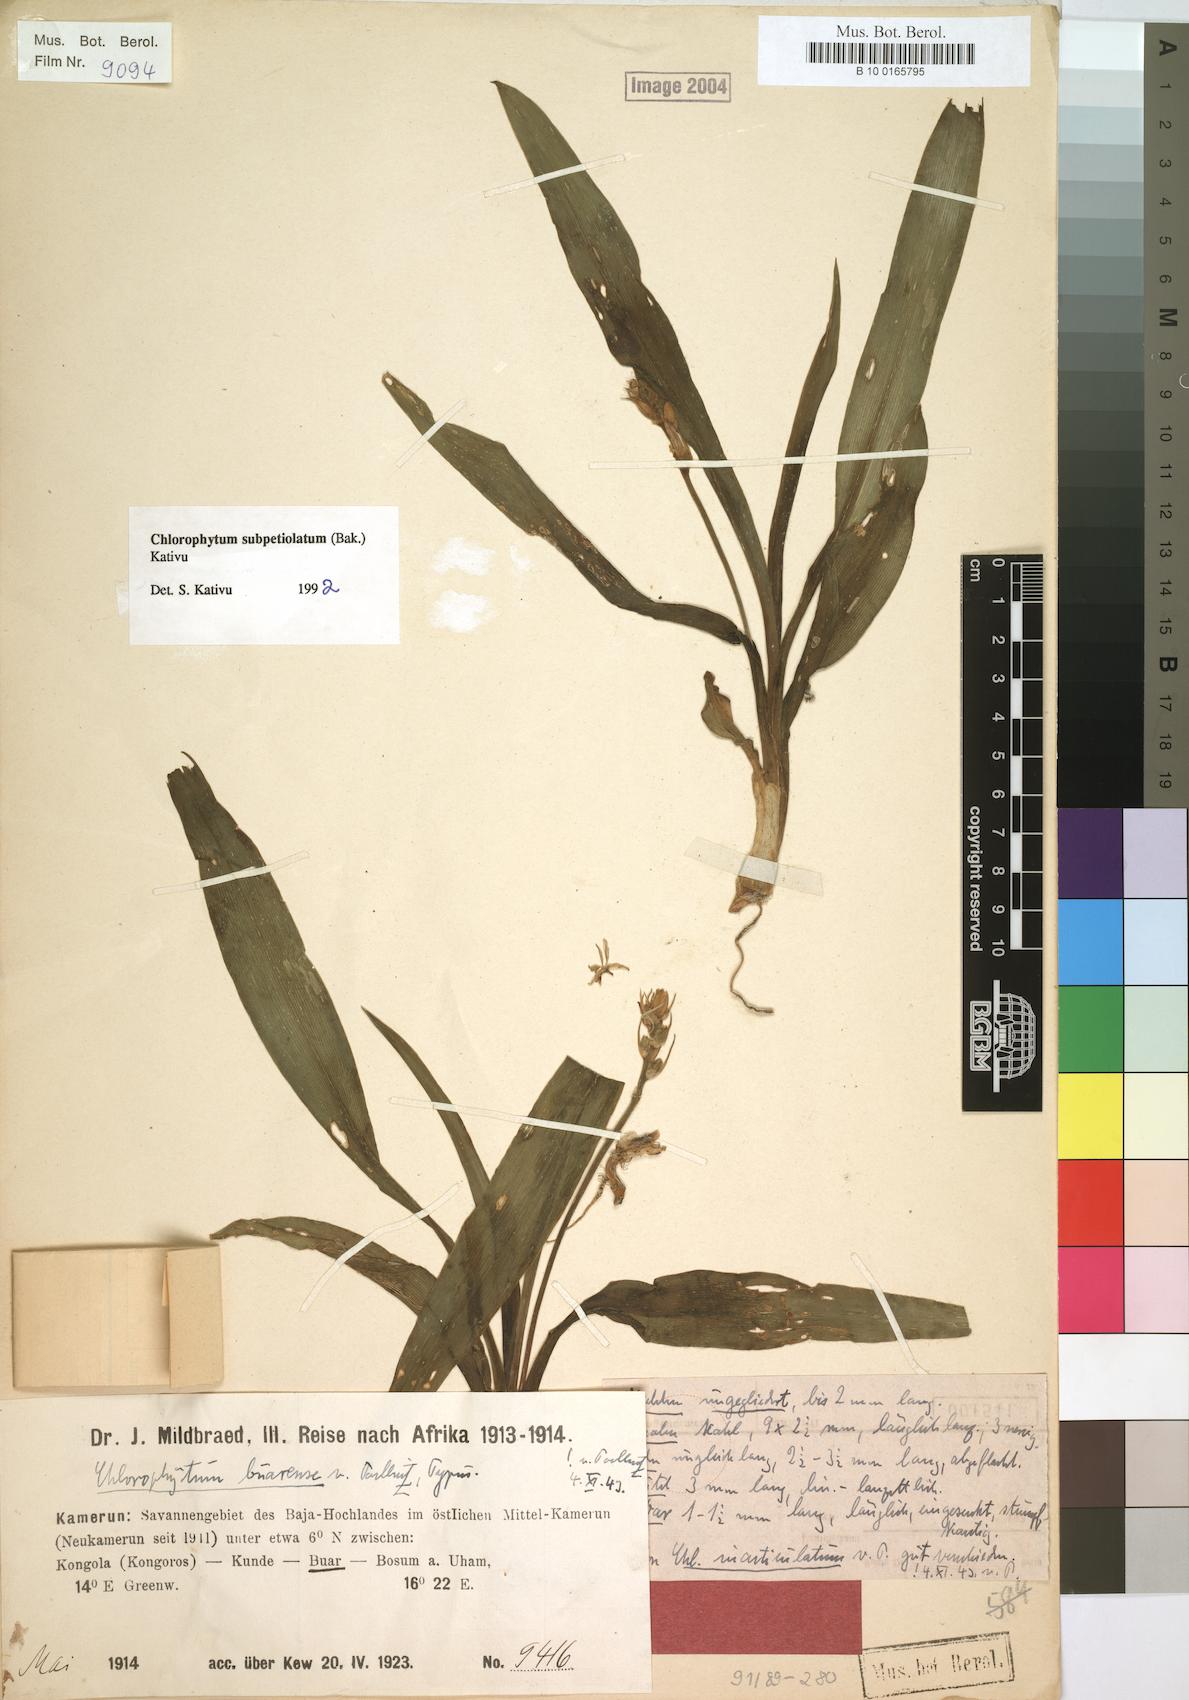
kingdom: Plantae
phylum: Tracheophyta
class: Liliopsida
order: Asparagales
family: Asparagaceae
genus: Chlorophytum
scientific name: Chlorophytum subpetiolatum
